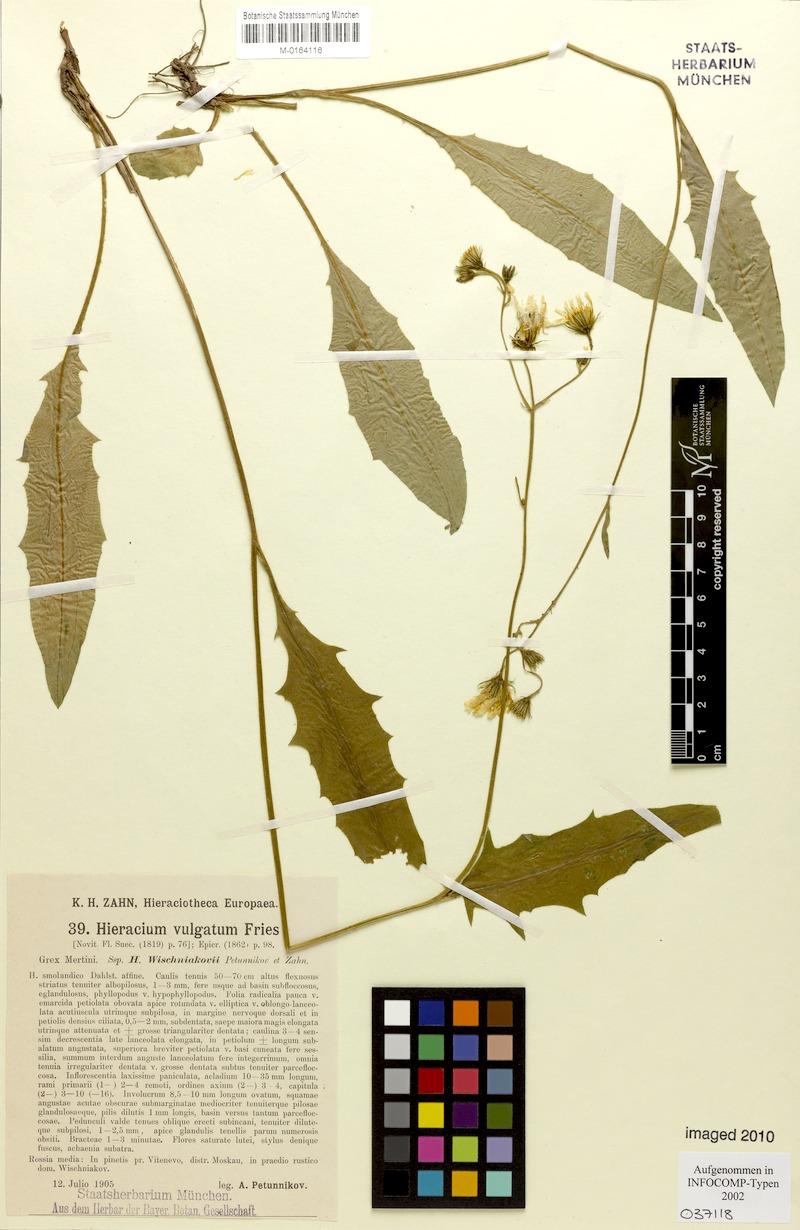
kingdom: Plantae
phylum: Tracheophyta
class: Magnoliopsida
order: Asterales
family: Asteraceae
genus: Hieracium
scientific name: Hieracium lachenalii
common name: Common hawkweed
